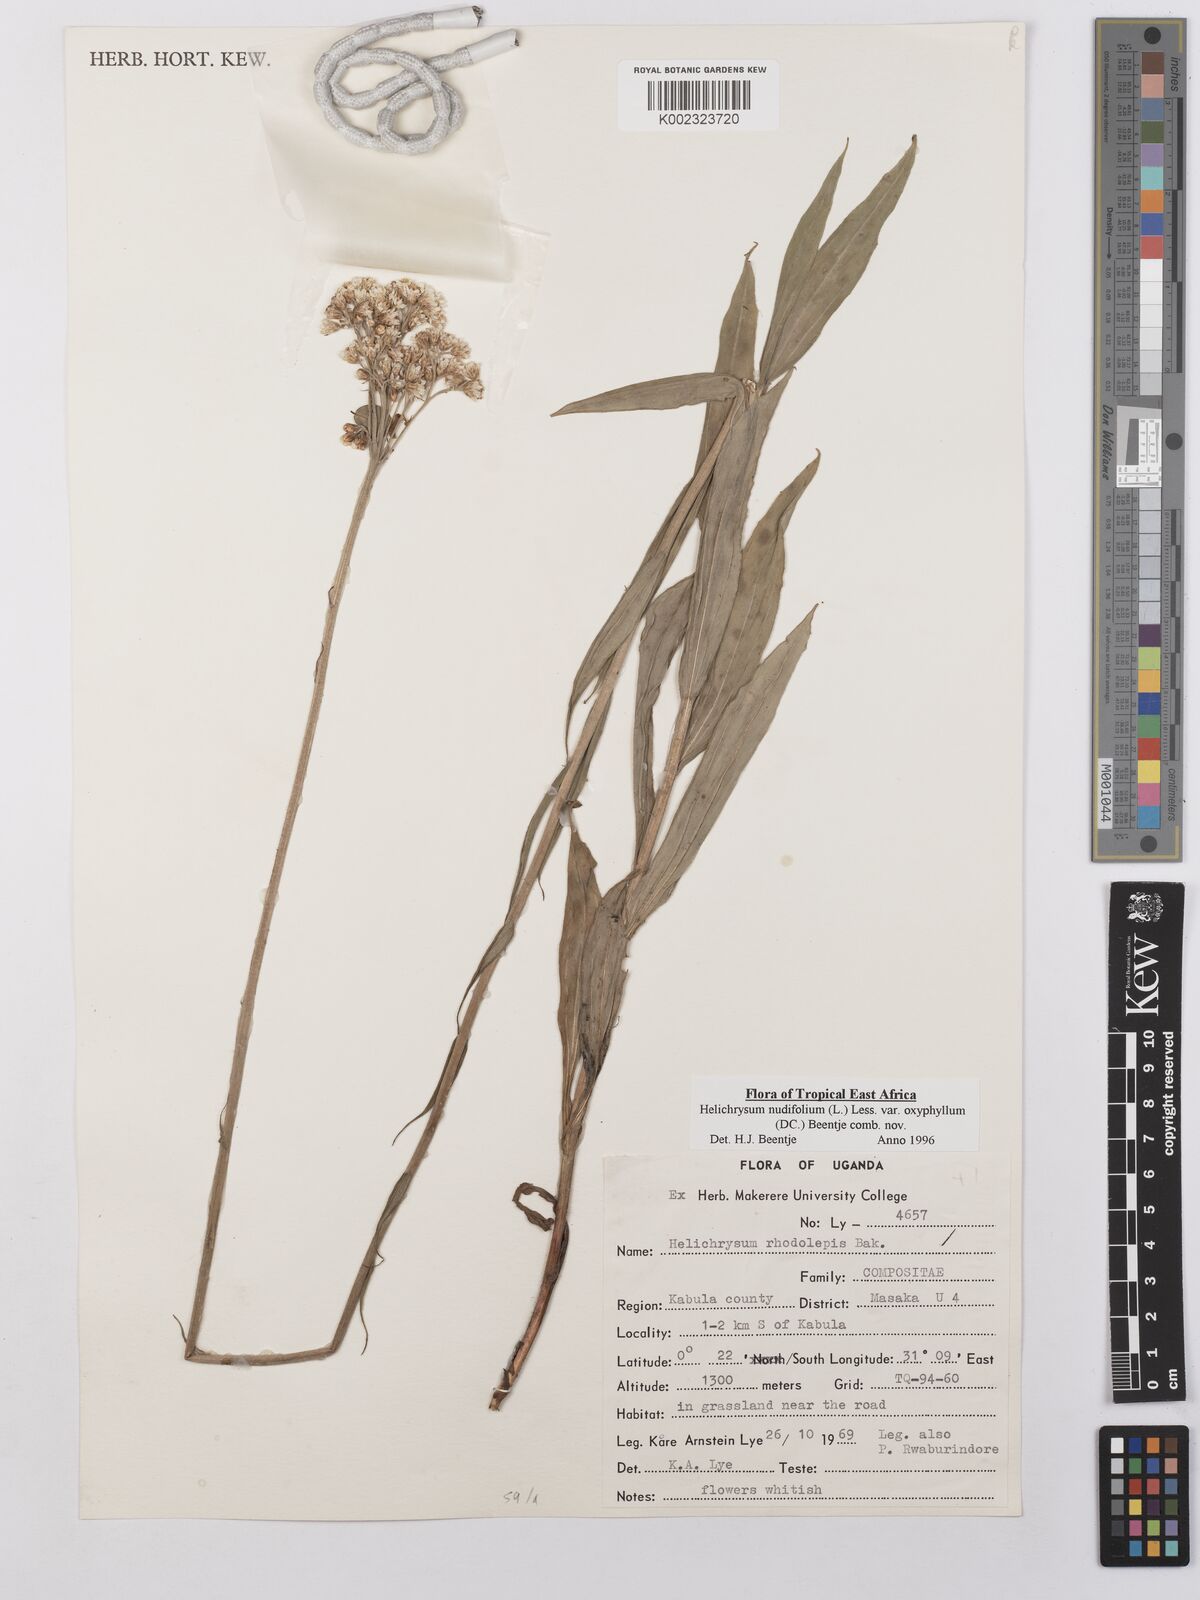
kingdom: Plantae
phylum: Tracheophyta
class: Magnoliopsida
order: Asterales
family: Asteraceae
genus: Helichrysum
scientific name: Helichrysum nudifolium
